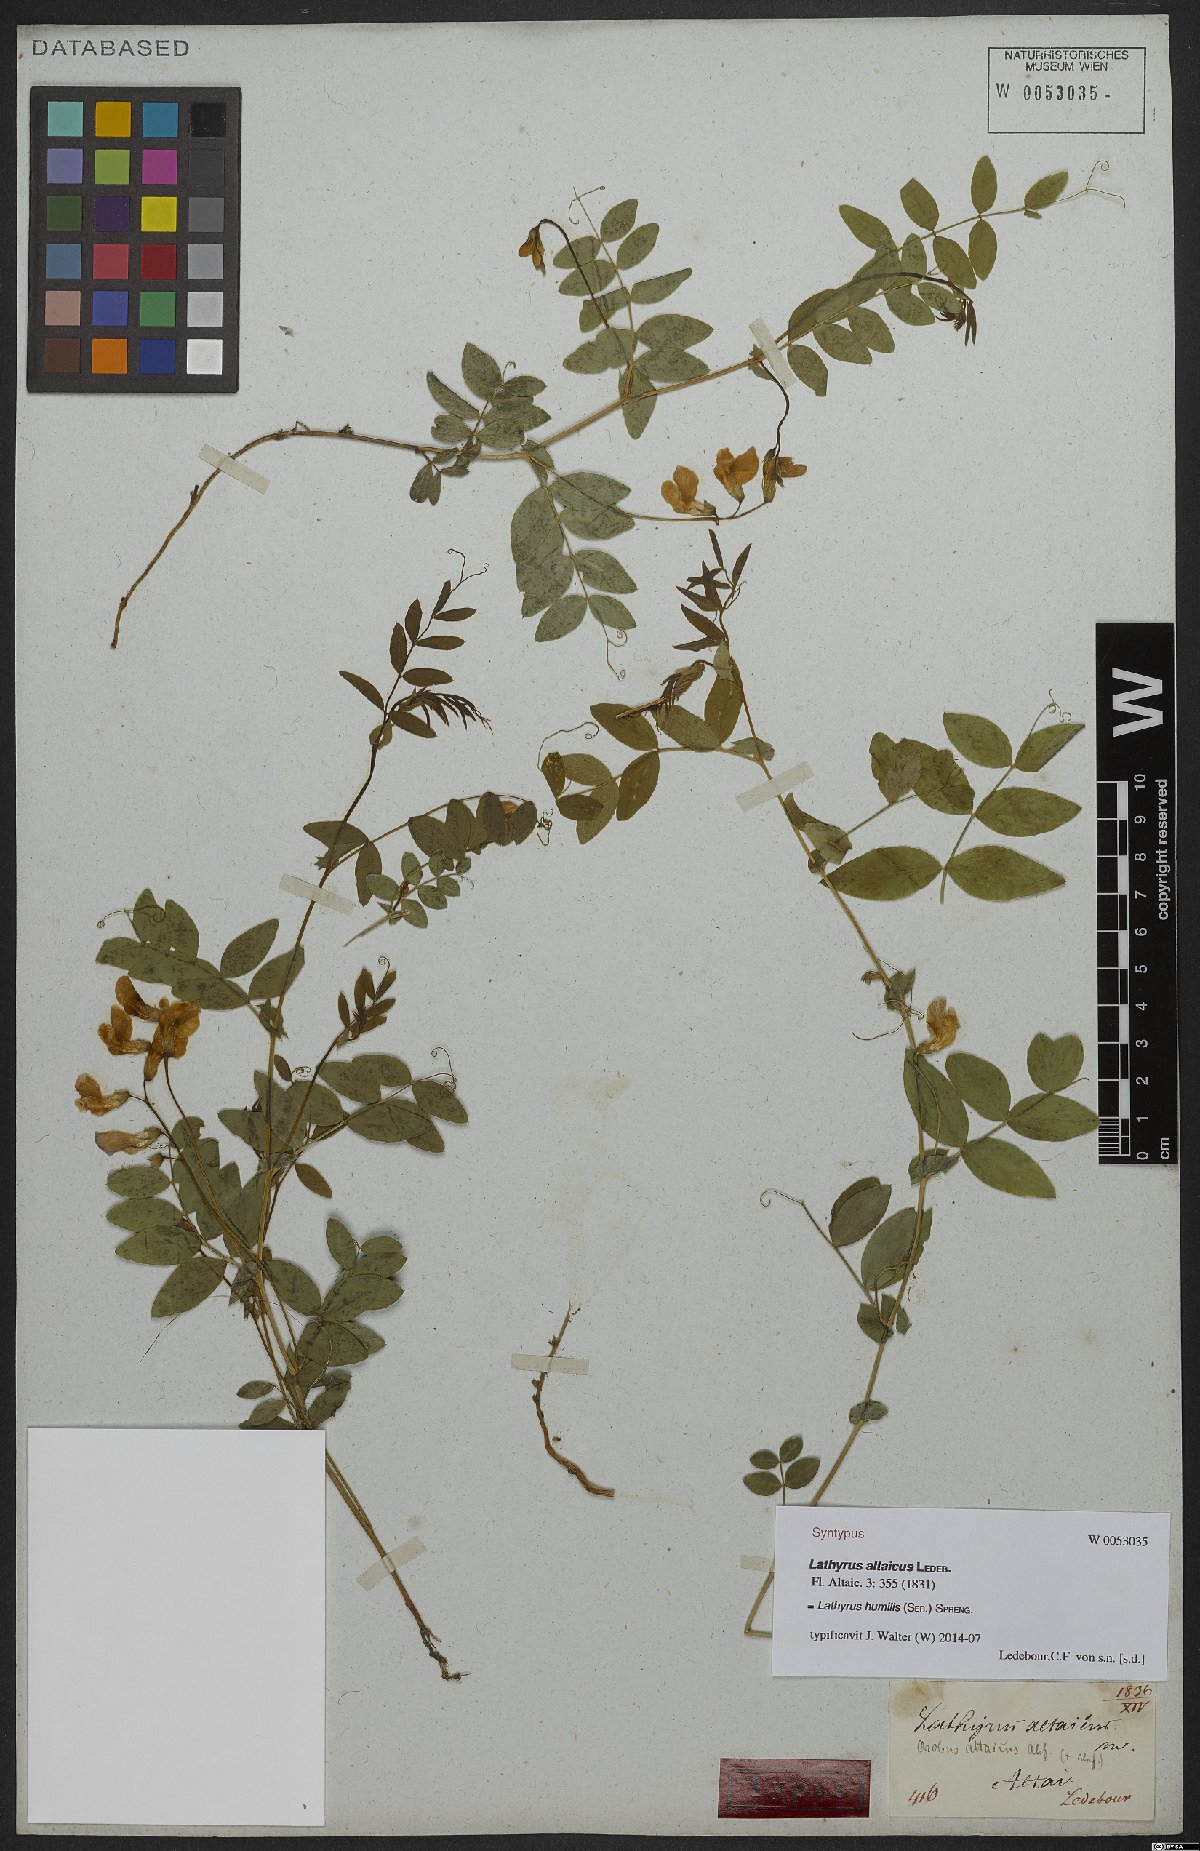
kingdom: Plantae
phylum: Tracheophyta
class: Magnoliopsida
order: Fabales
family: Fabaceae
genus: Lathyrus
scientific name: Lathyrus humilis
